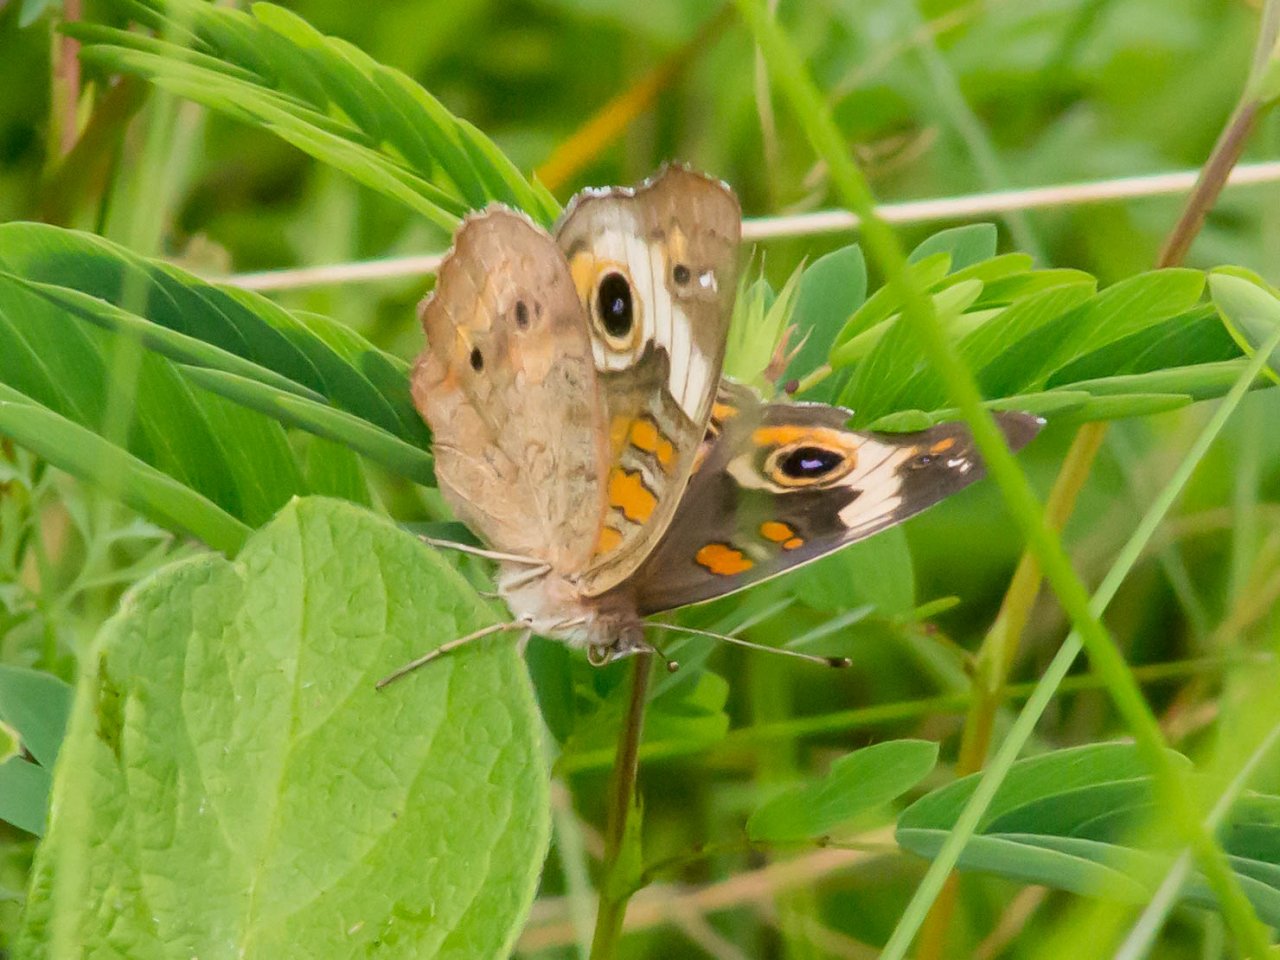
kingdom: Animalia
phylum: Arthropoda
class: Insecta
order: Lepidoptera
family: Nymphalidae
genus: Junonia
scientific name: Junonia coenia
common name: Common Buckeye
